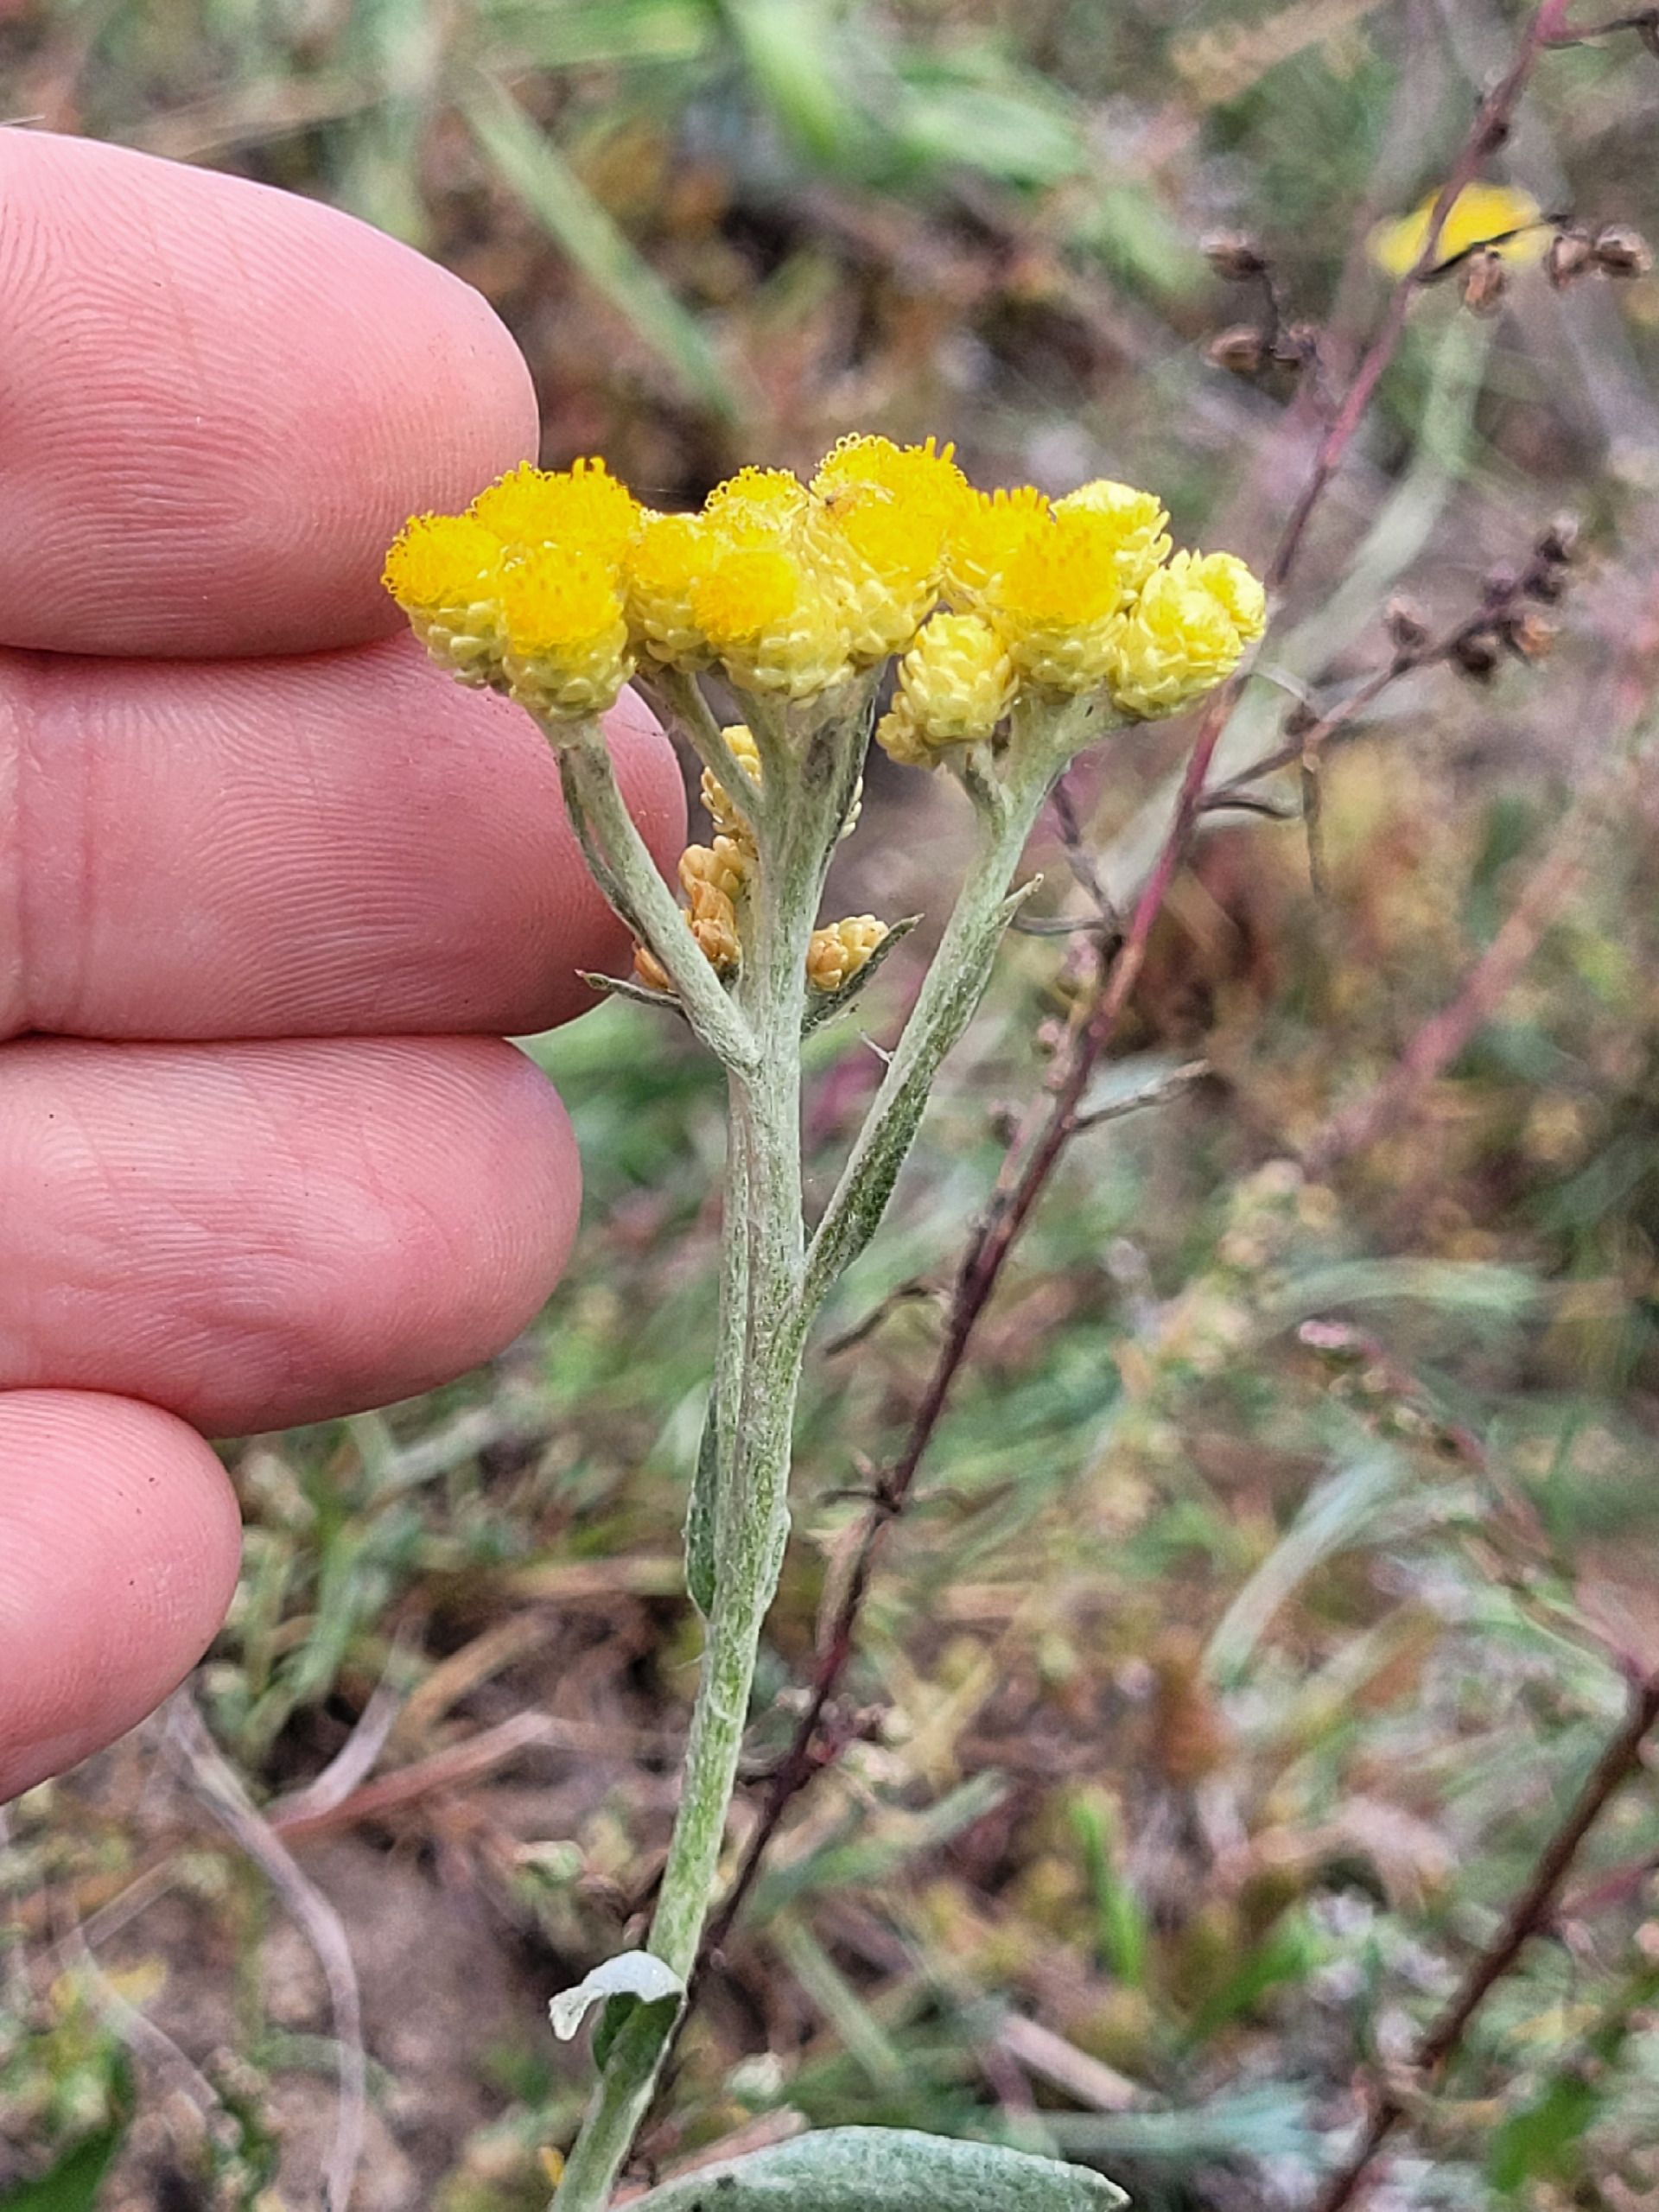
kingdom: Plantae
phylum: Tracheophyta
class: Magnoliopsida
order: Asterales
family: Asteraceae
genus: Helichrysum
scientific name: Helichrysum arenarium
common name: Gul evighedsblomst
